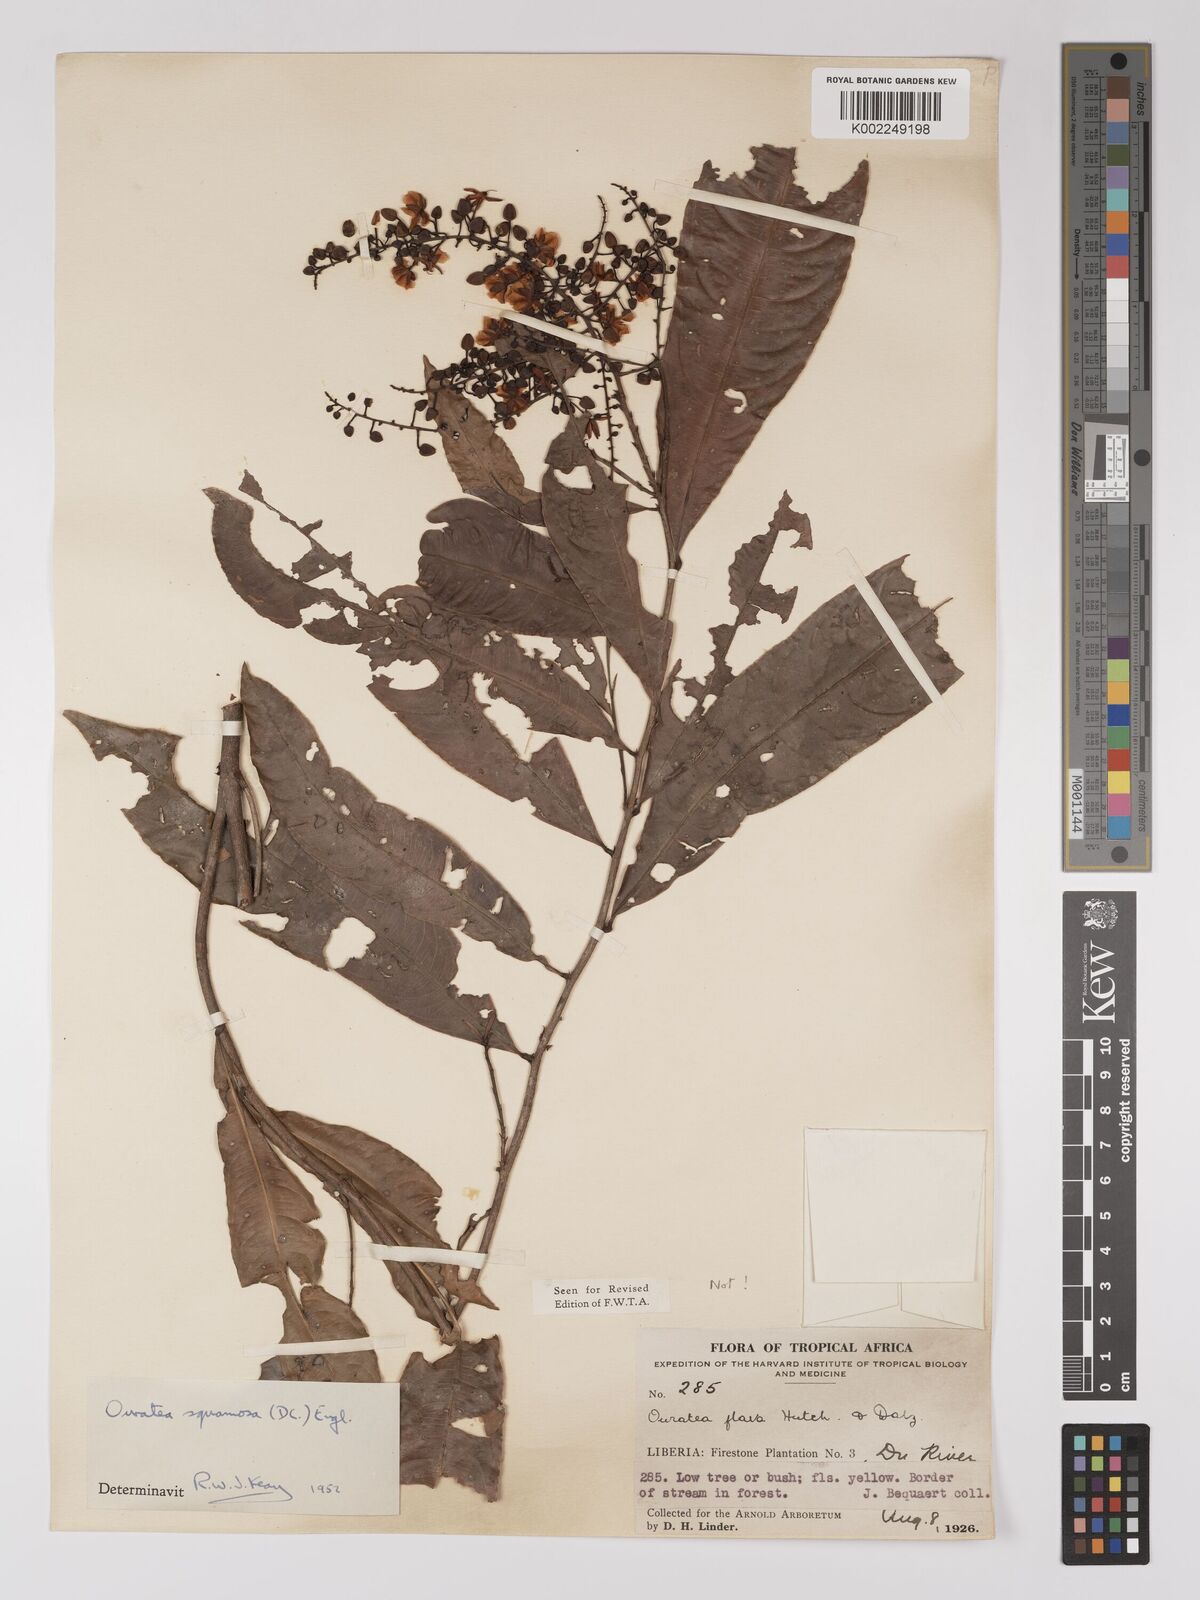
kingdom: Plantae
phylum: Tracheophyta
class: Magnoliopsida
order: Malpighiales
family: Ochnaceae
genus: Campylospermum
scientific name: Campylospermum squamosum
